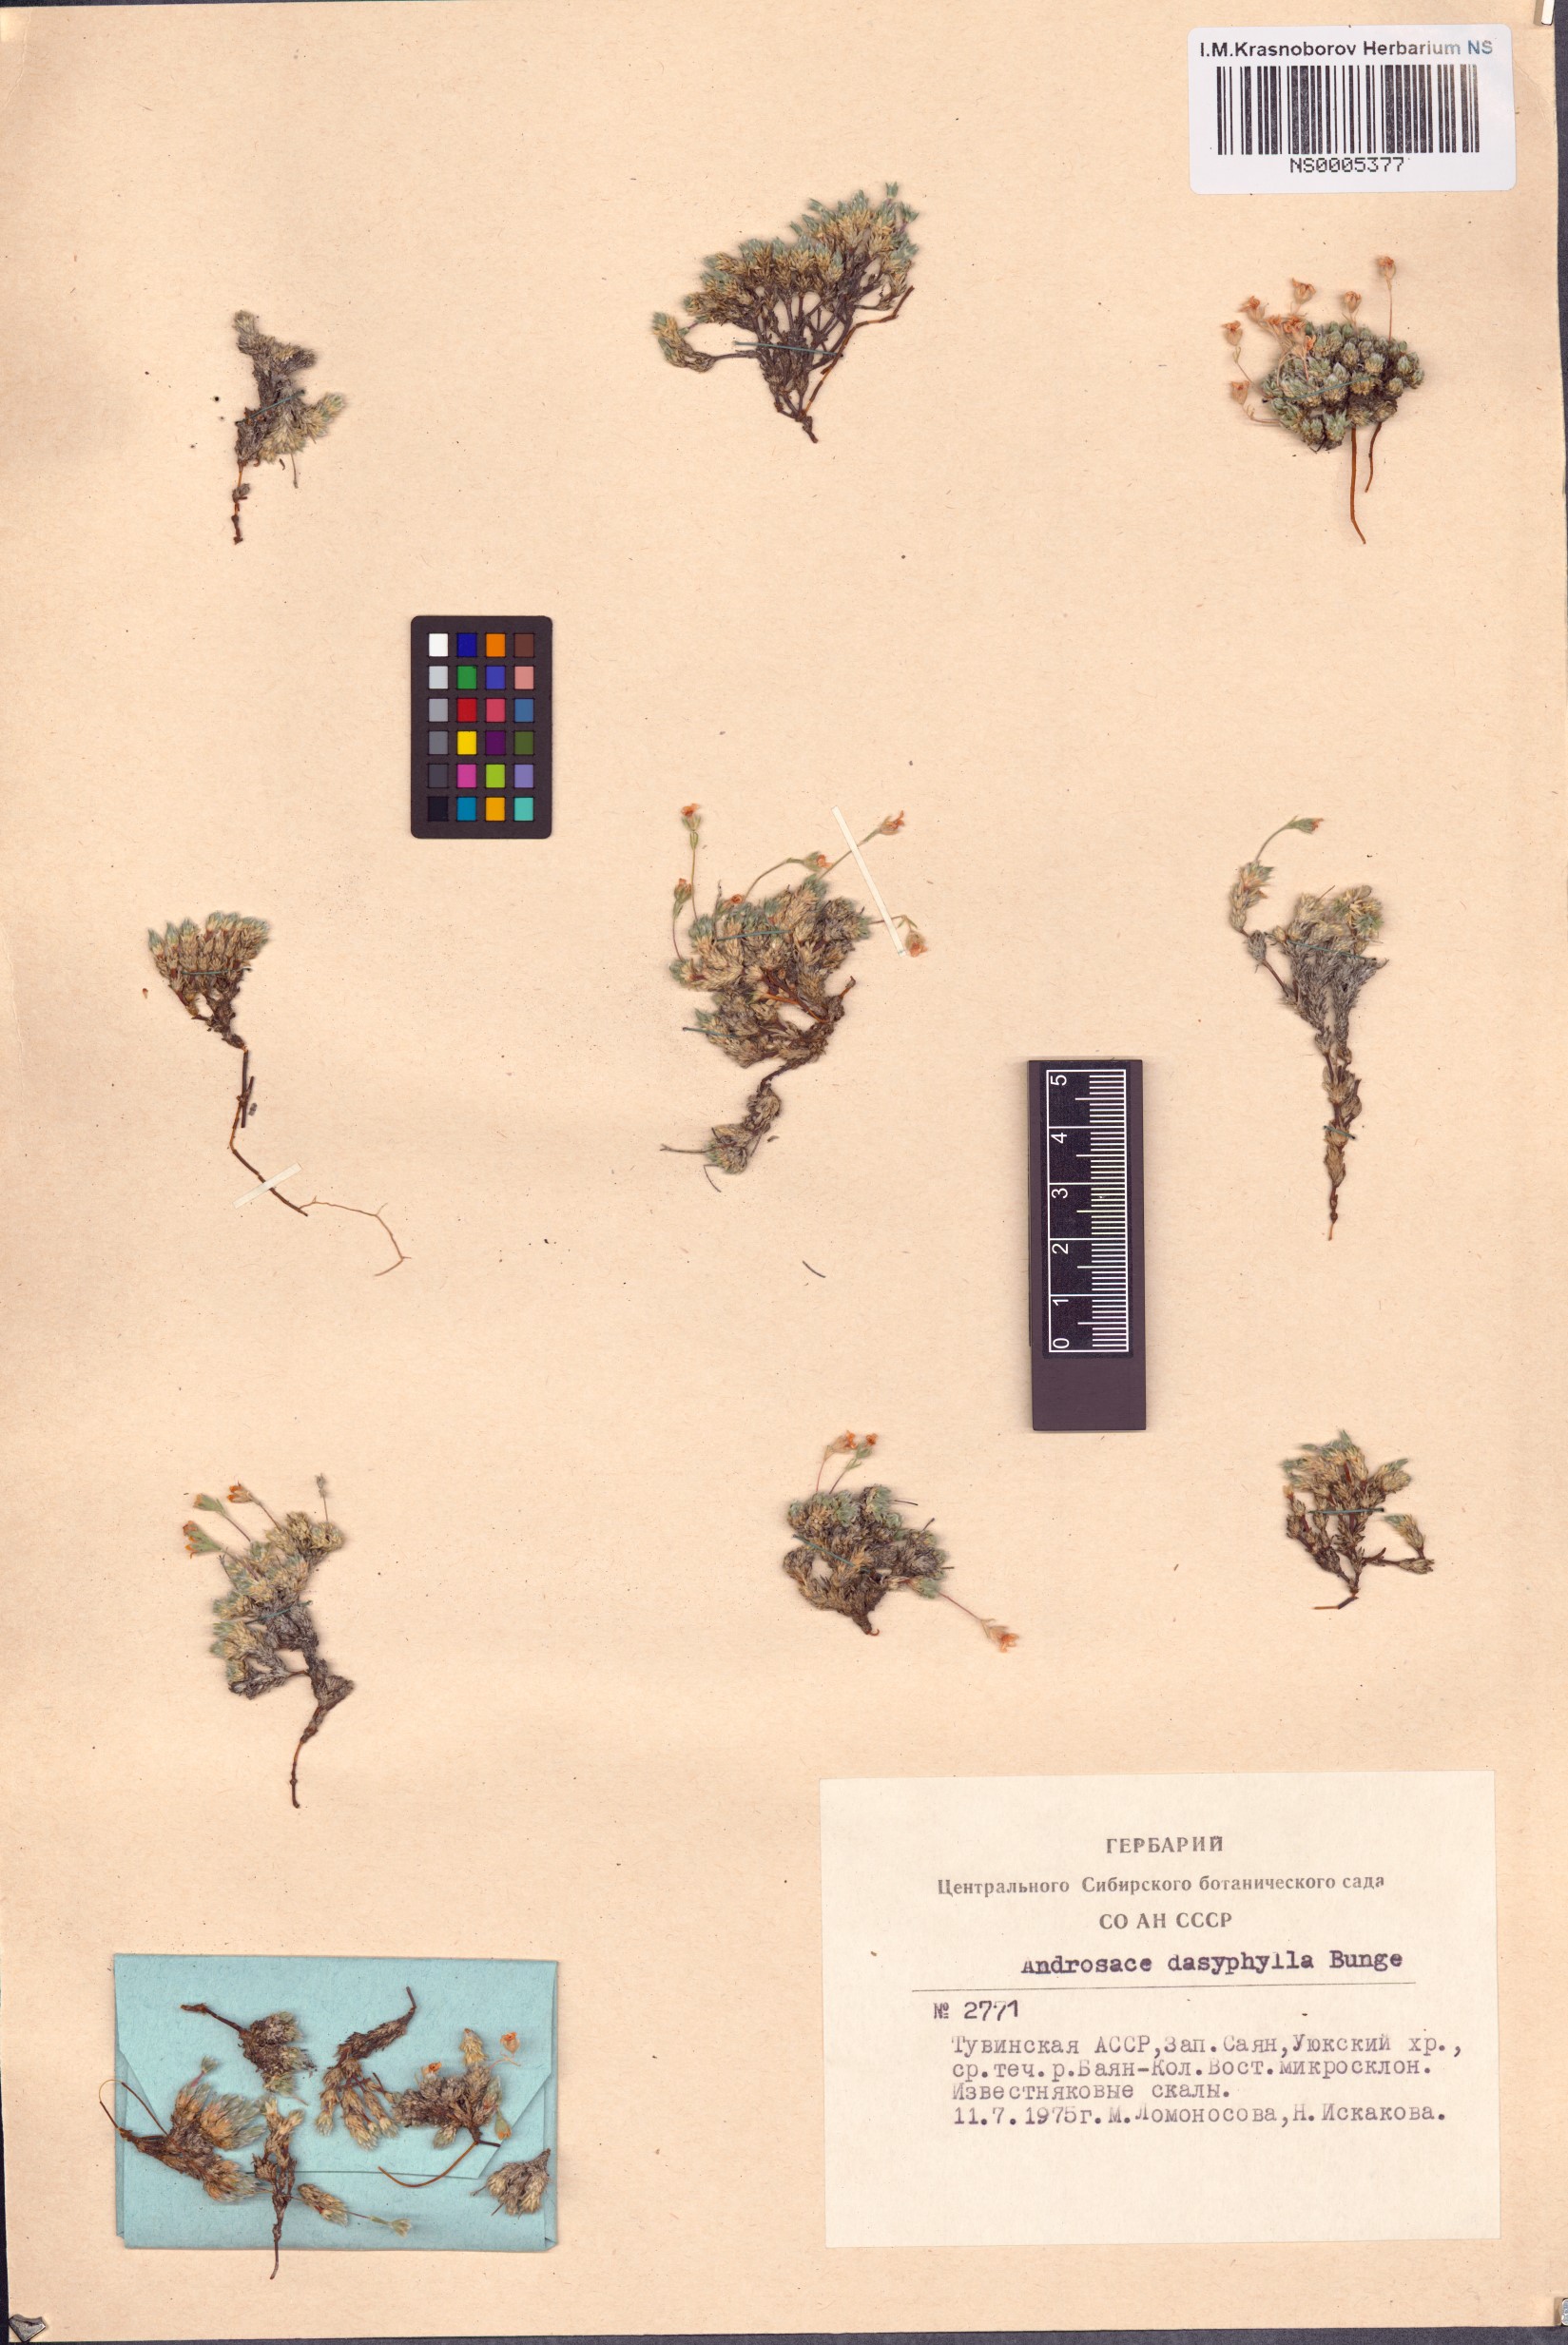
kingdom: Plantae
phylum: Tracheophyta
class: Magnoliopsida
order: Ericales
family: Primulaceae
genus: Androsace
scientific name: Androsace dasyphylla
